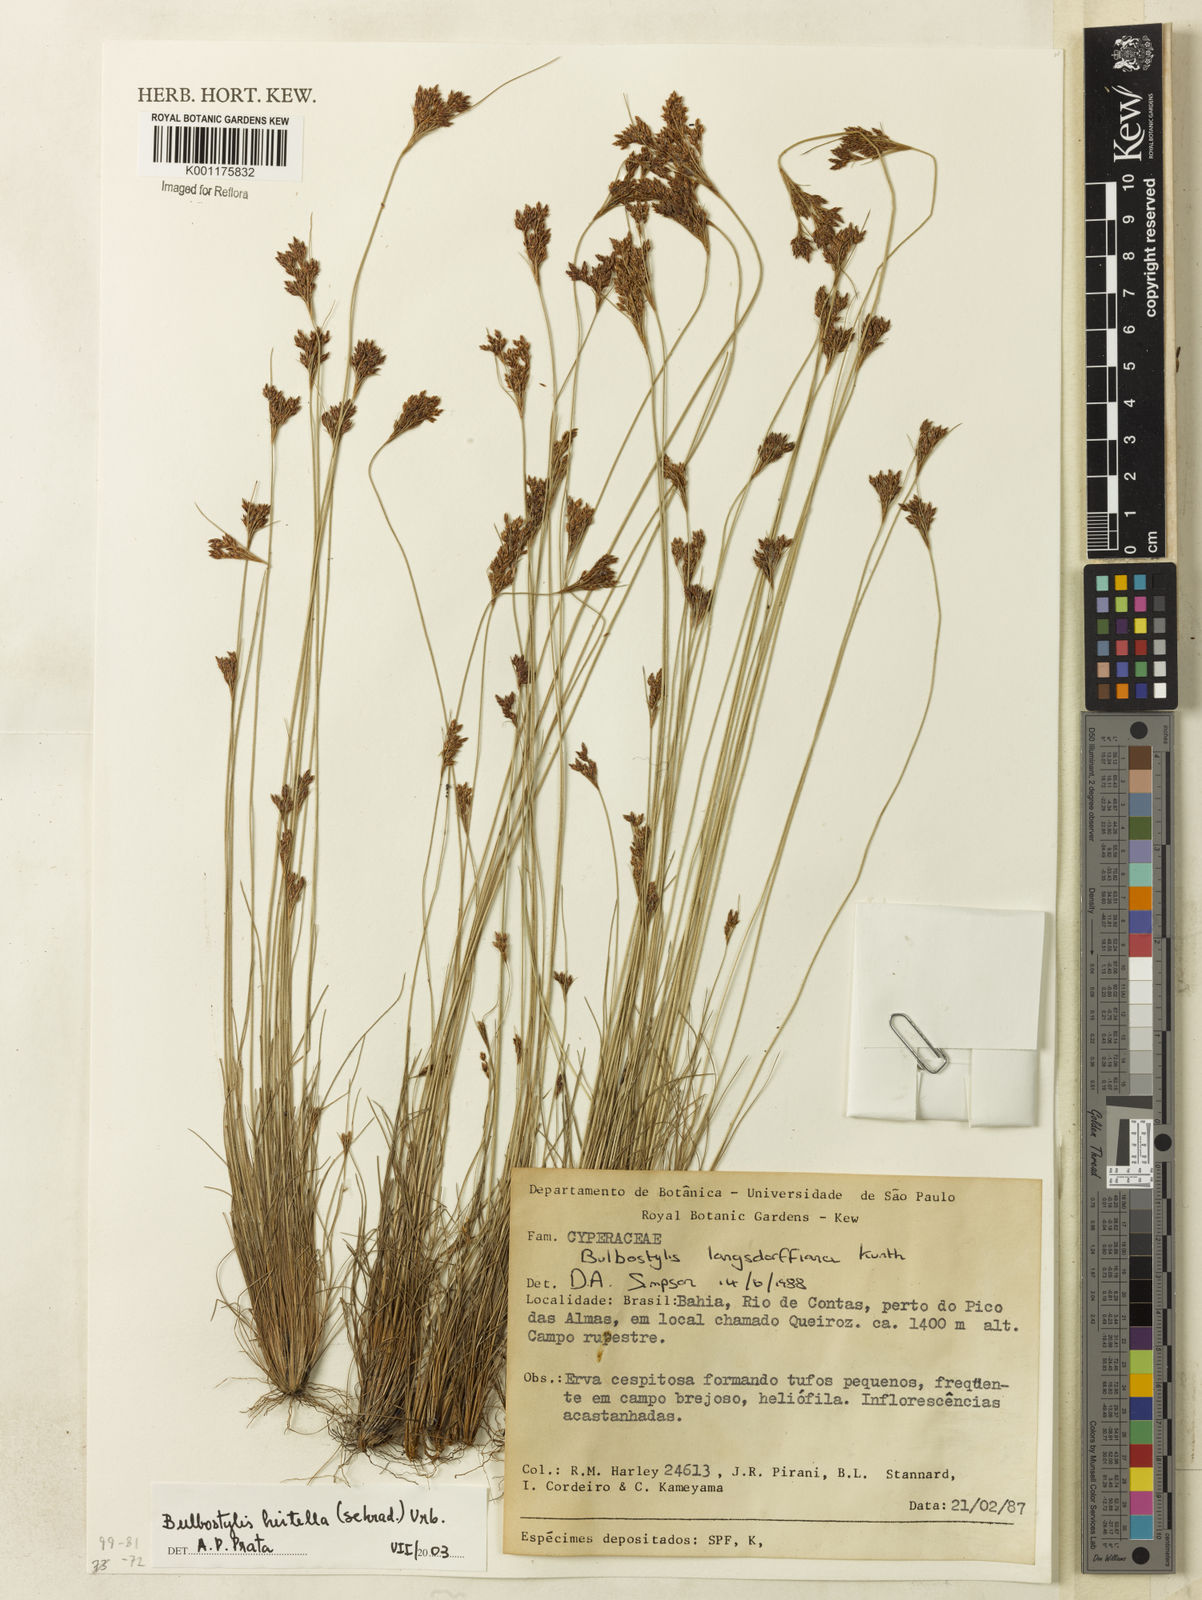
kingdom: Plantae
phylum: Tracheophyta
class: Liliopsida
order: Poales
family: Cyperaceae
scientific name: Cyperaceae
